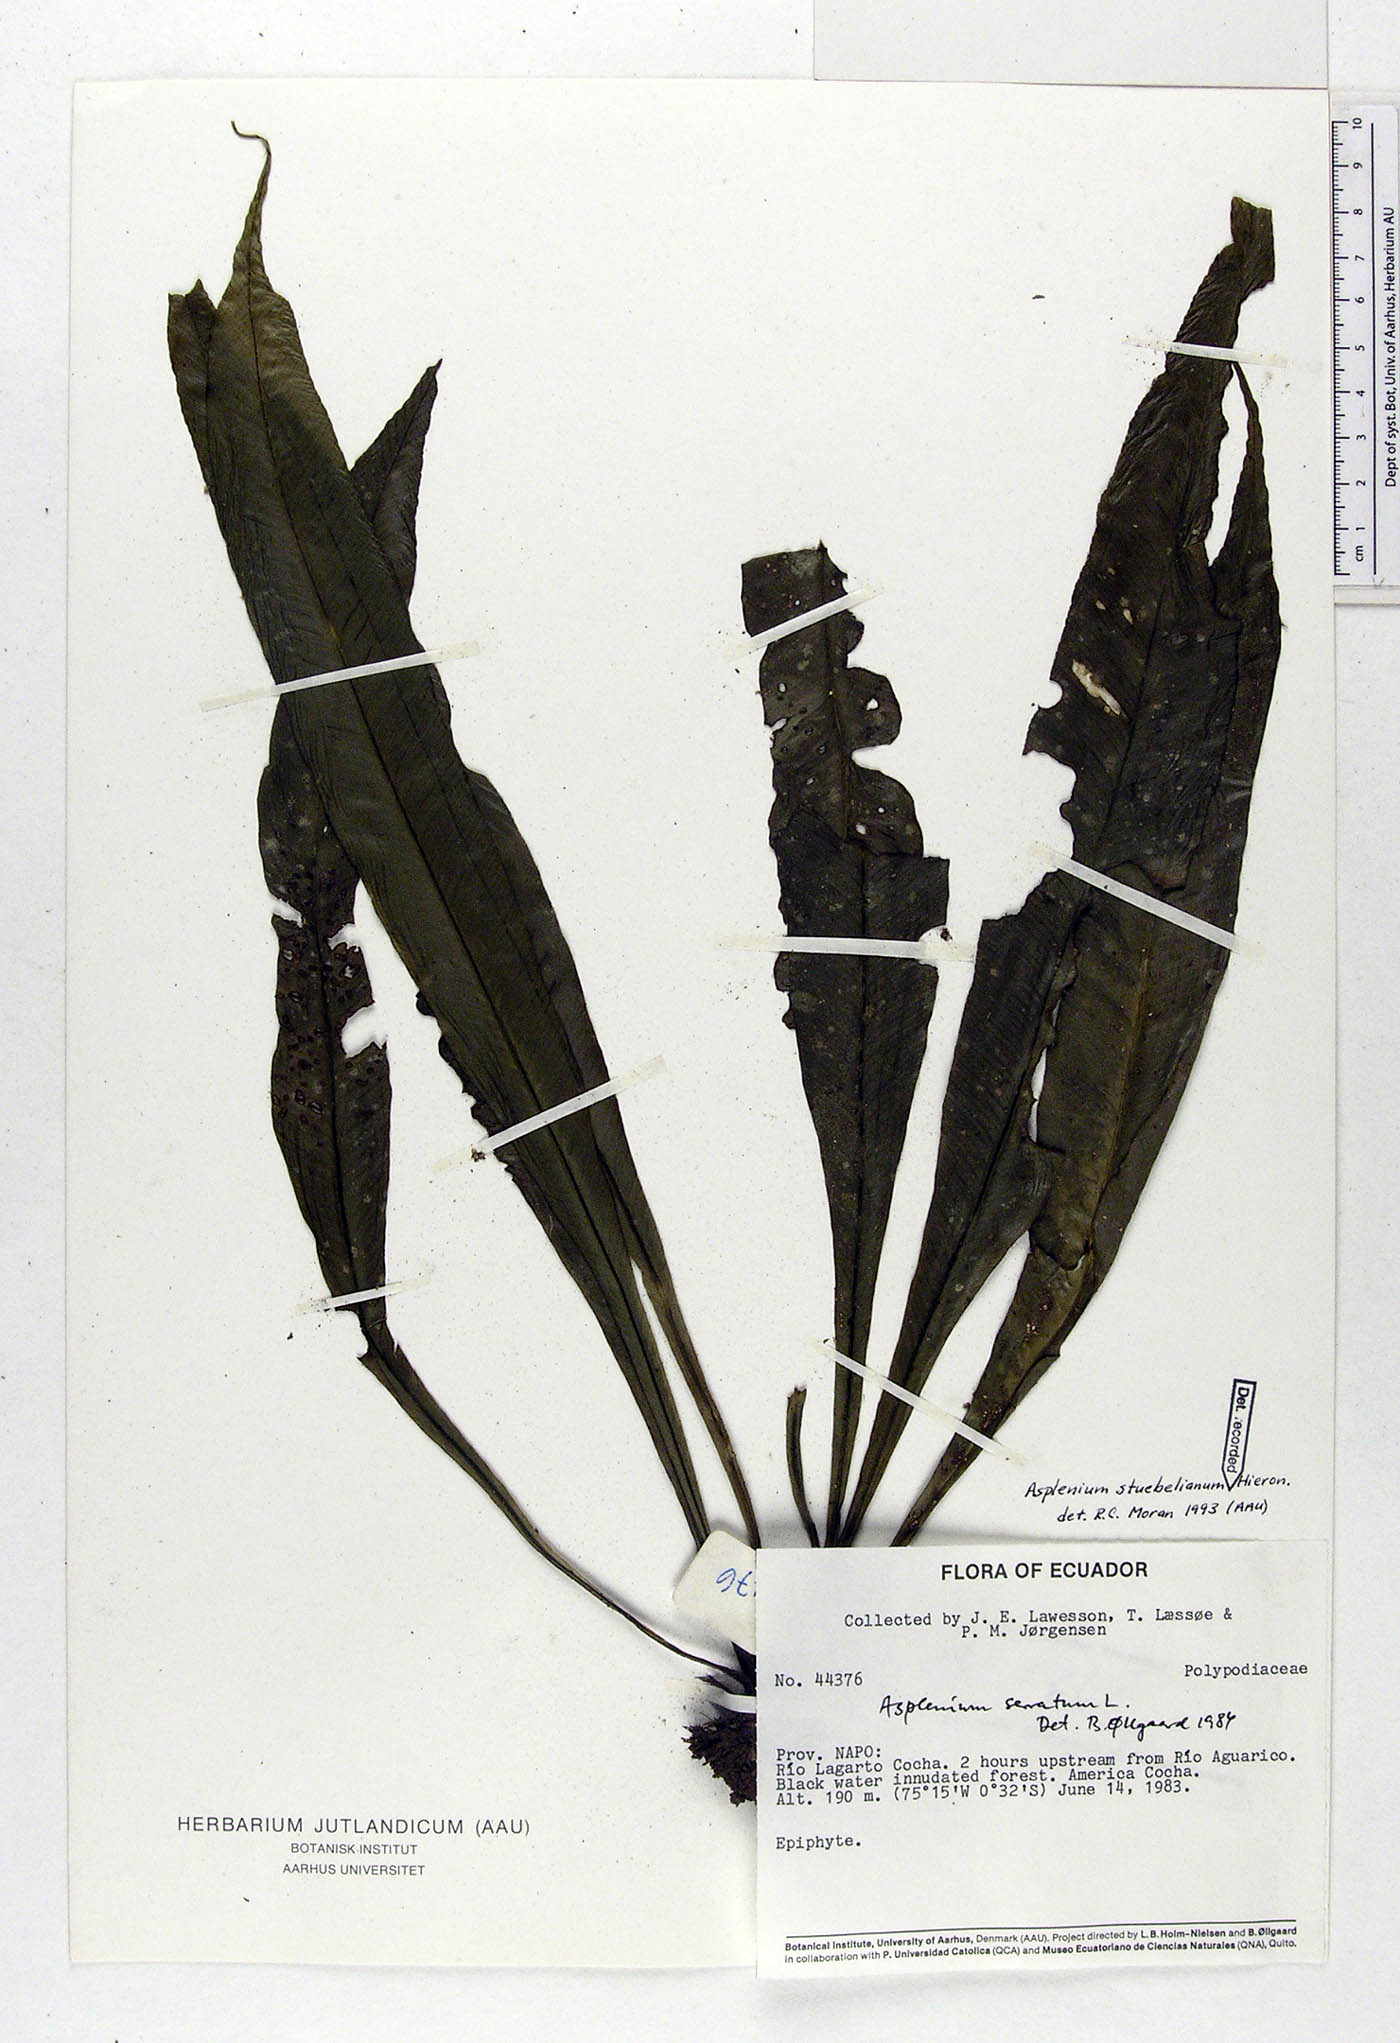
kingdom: Plantae
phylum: Tracheophyta
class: Polypodiopsida
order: Polypodiales
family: Aspleniaceae
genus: Asplenium
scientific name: Asplenium stuebelianum
